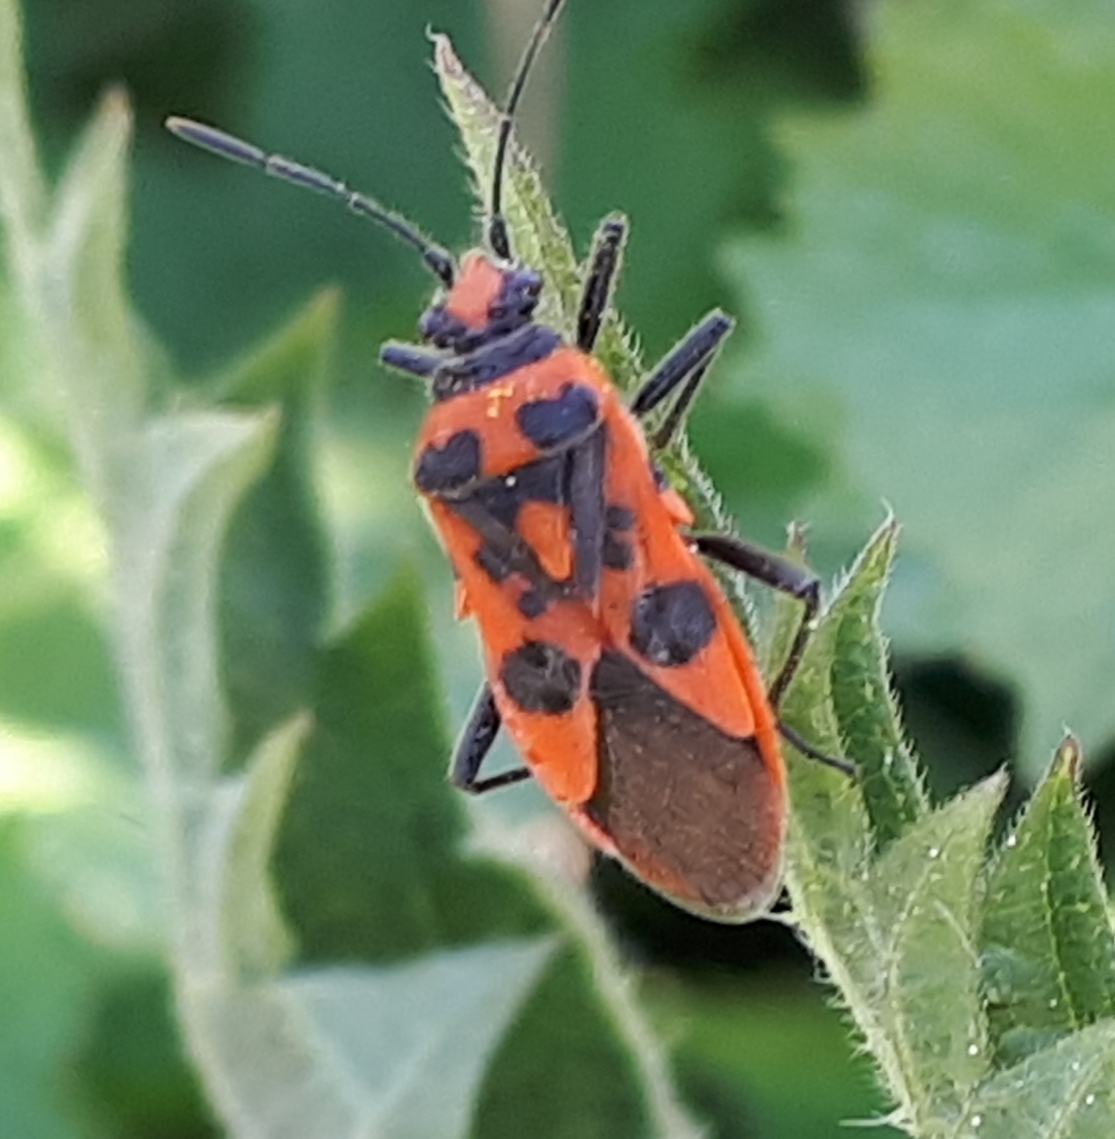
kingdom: Animalia
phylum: Arthropoda
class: Insecta
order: Hemiptera
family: Rhopalidae
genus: Corizus
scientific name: Corizus hyoscyami
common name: Rød kanttæge
